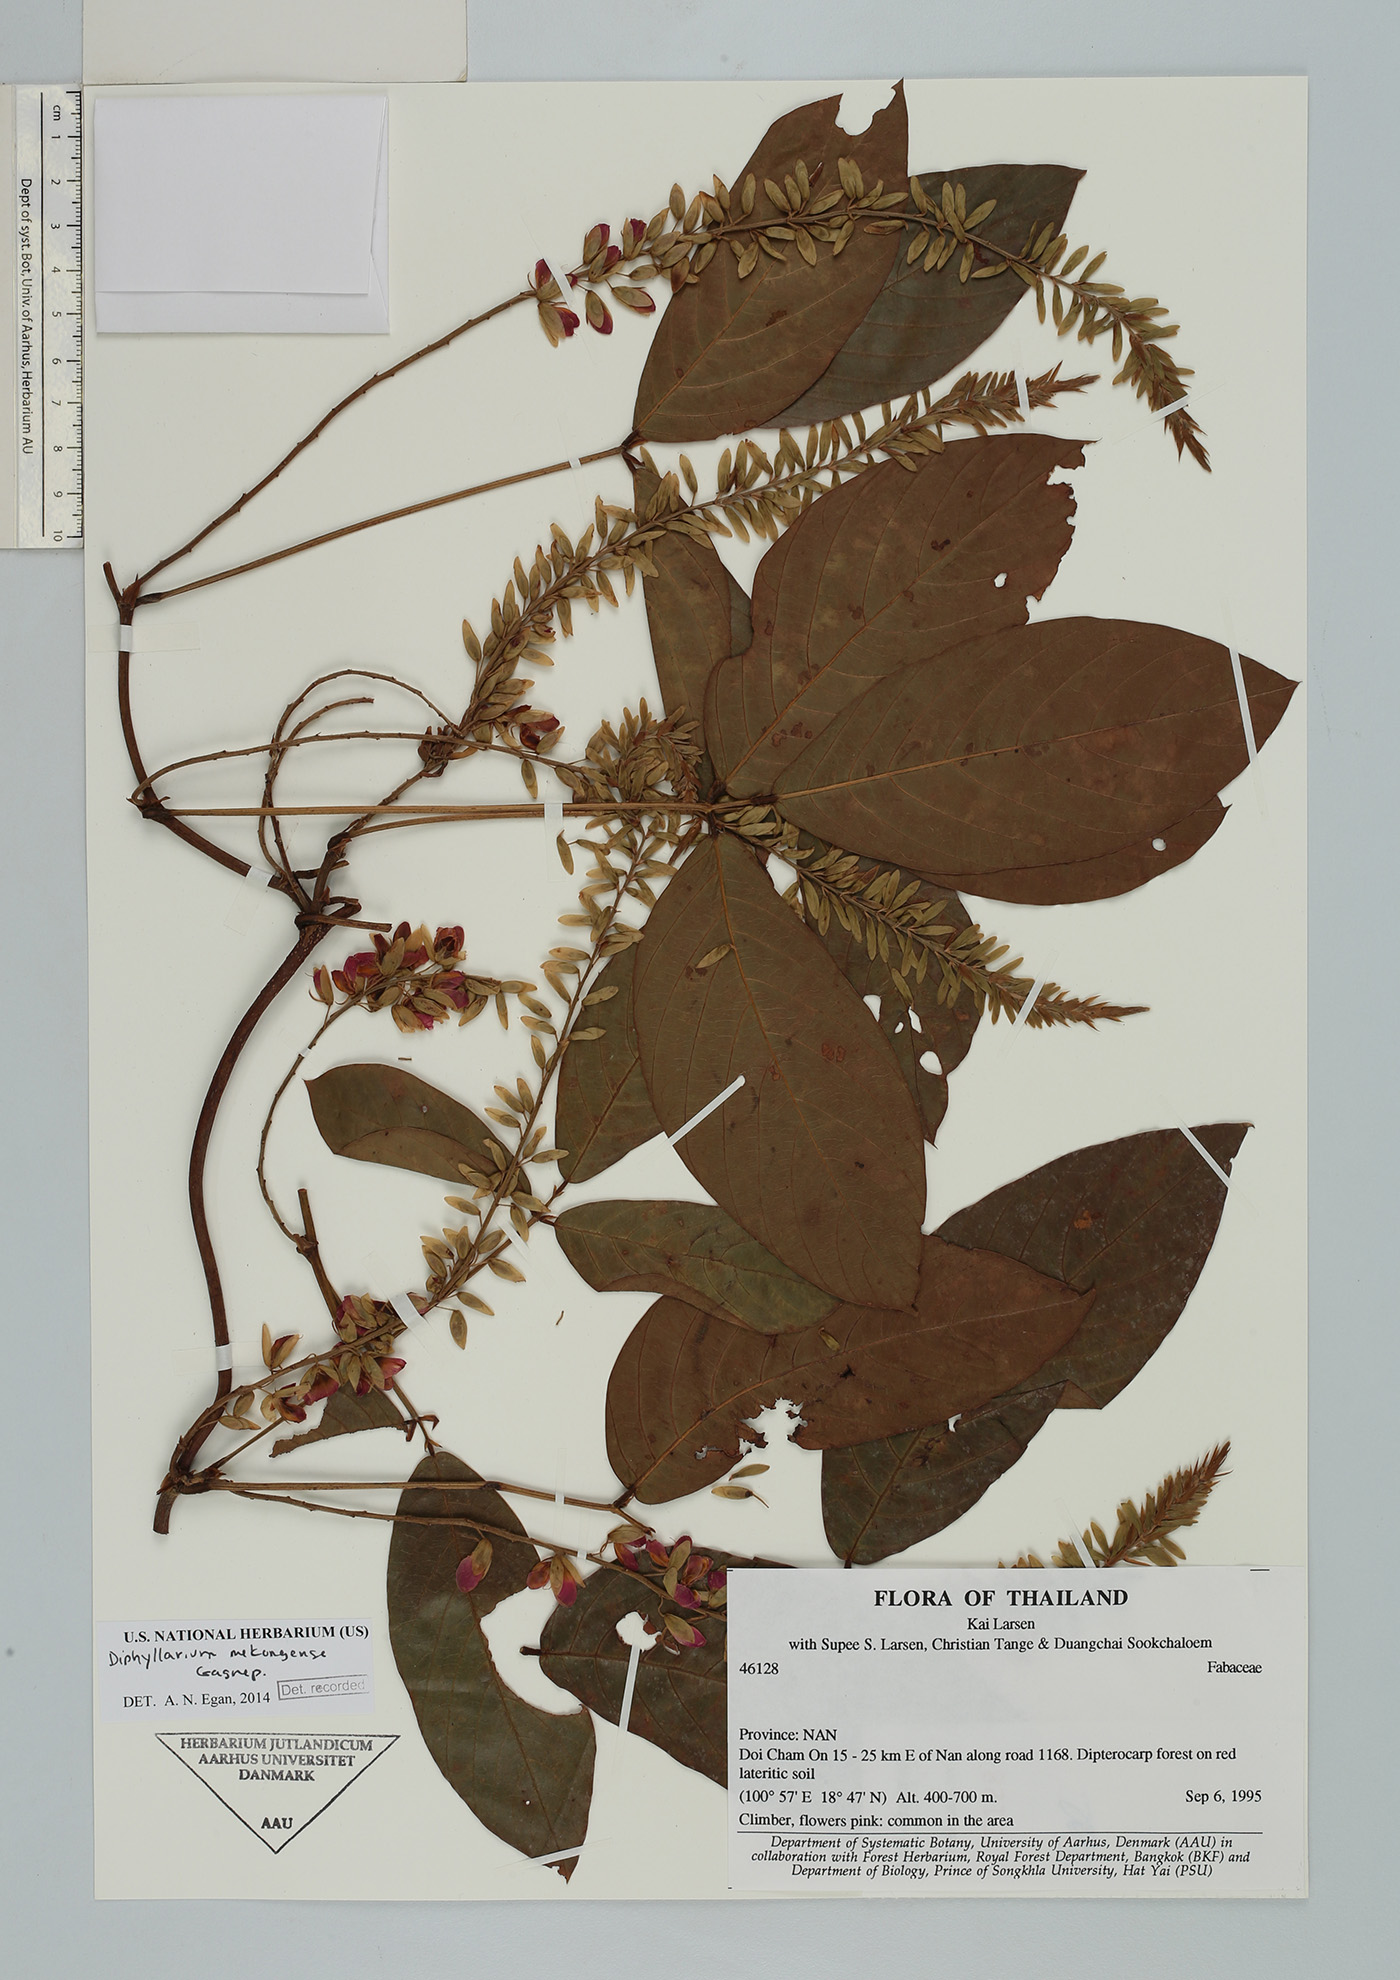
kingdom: Plantae
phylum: Tracheophyta
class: Magnoliopsida
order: Fabales
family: Fabaceae
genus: Diphyllarium
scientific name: Diphyllarium melongense
